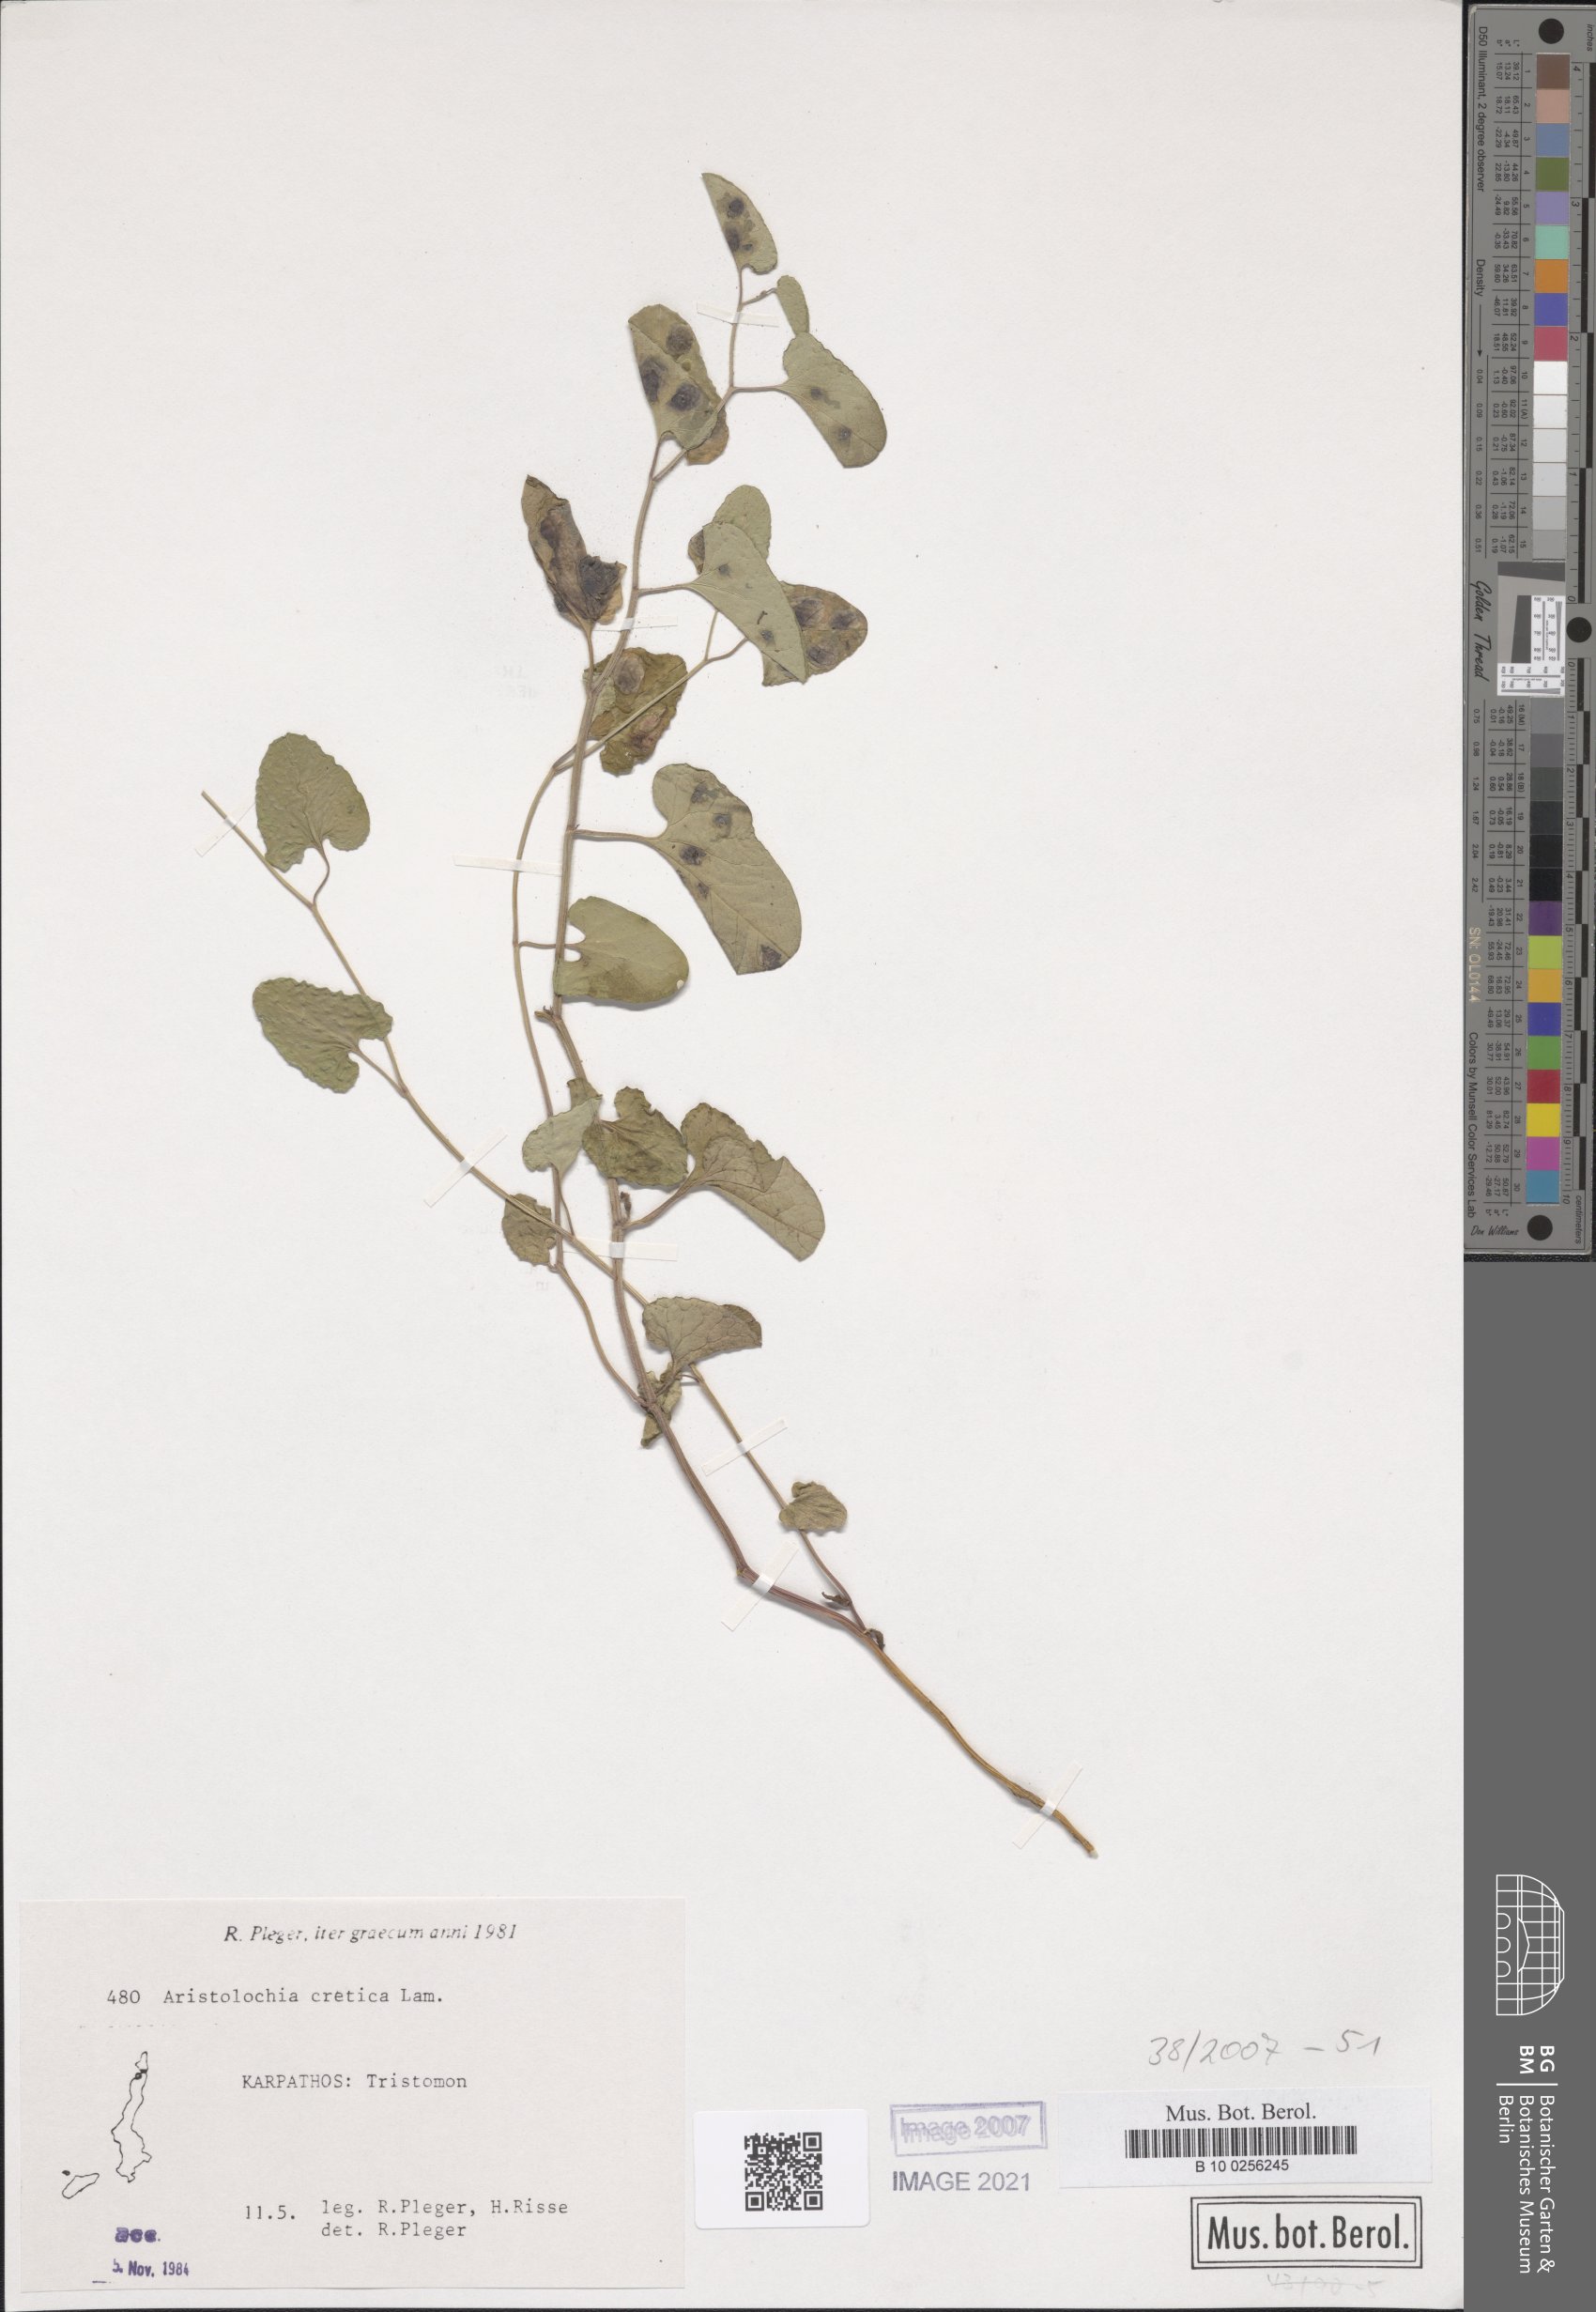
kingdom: Plantae
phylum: Tracheophyta
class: Magnoliopsida
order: Piperales
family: Aristolochiaceae
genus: Aristolochia
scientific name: Aristolochia cretica
